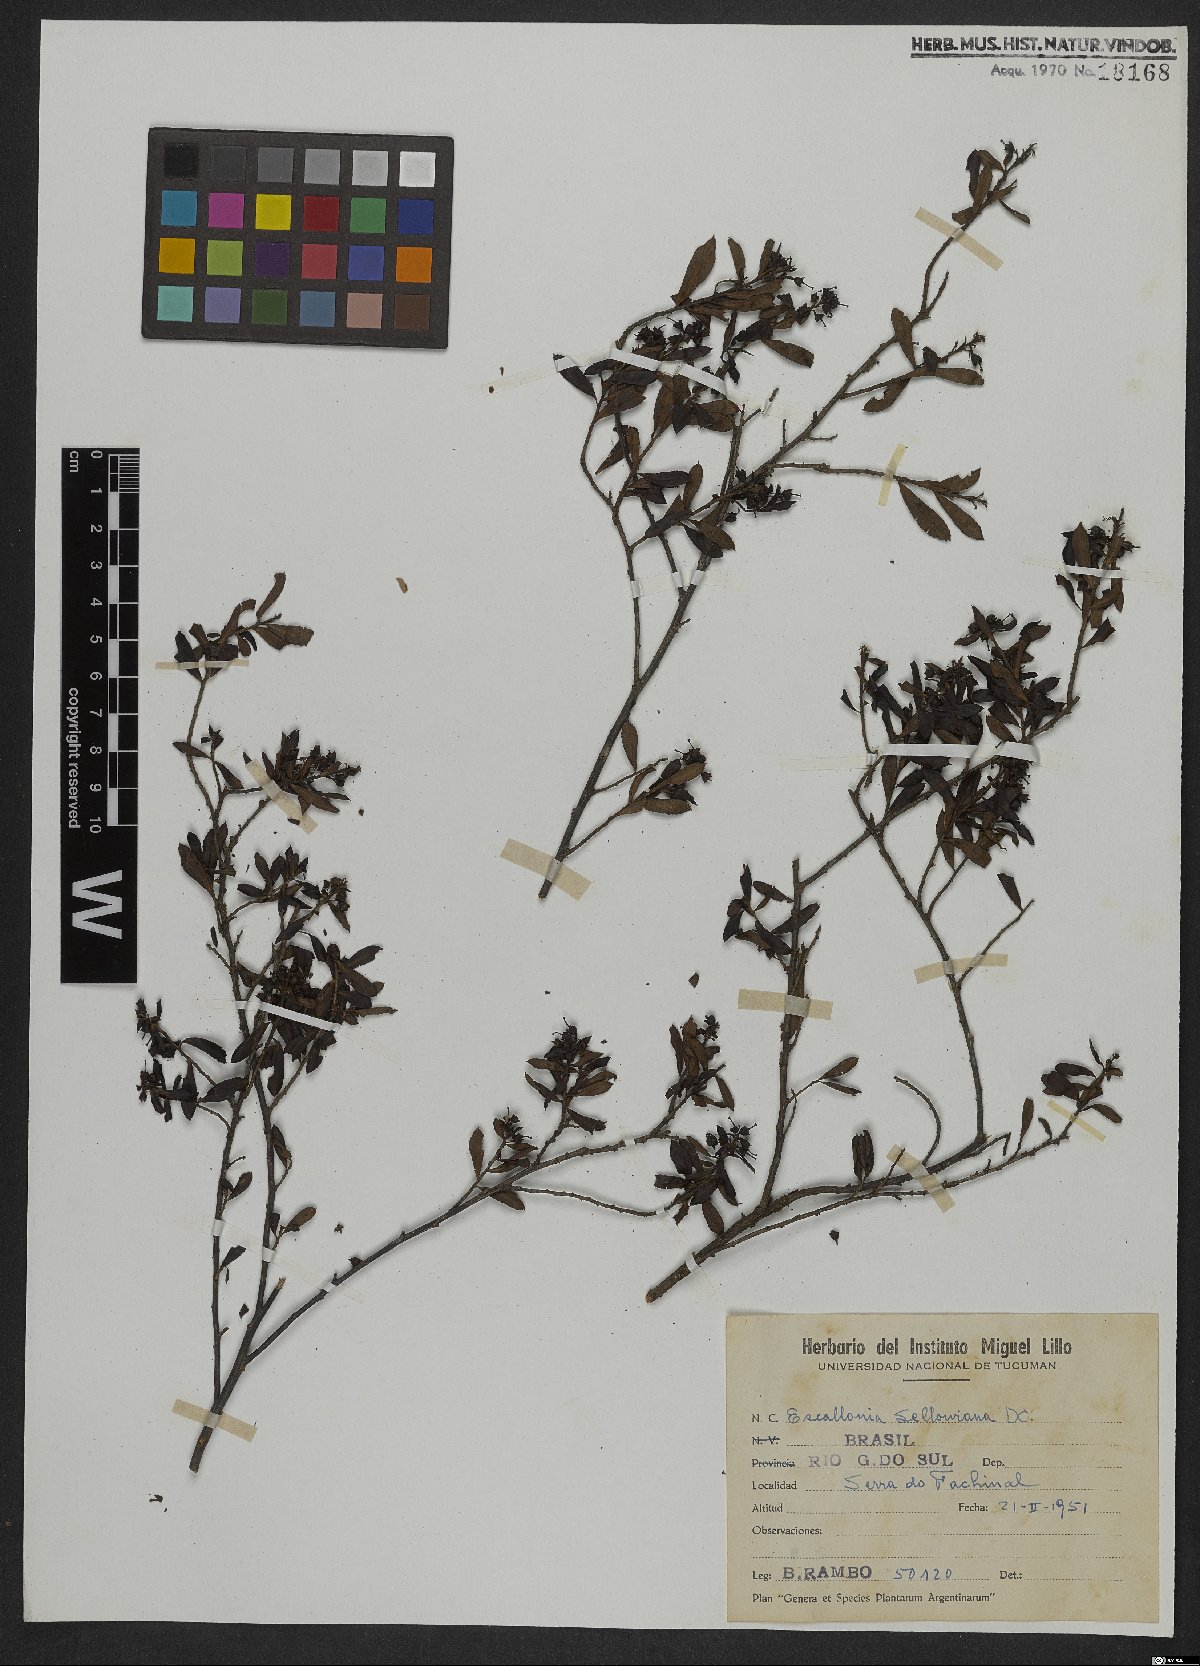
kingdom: Plantae
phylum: Tracheophyta
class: Magnoliopsida
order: Escalloniales
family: Escalloniaceae
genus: Escallonia
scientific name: Escallonia megapotamica
